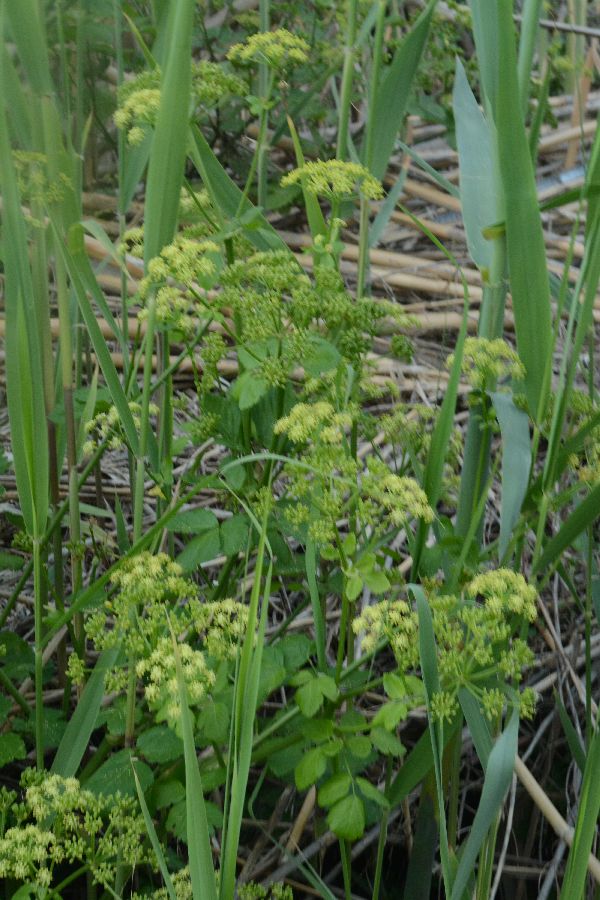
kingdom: Plantae
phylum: Tracheophyta
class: Magnoliopsida
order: Apiales
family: Apiaceae
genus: Smyrnium
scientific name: Smyrnium olusatrum
